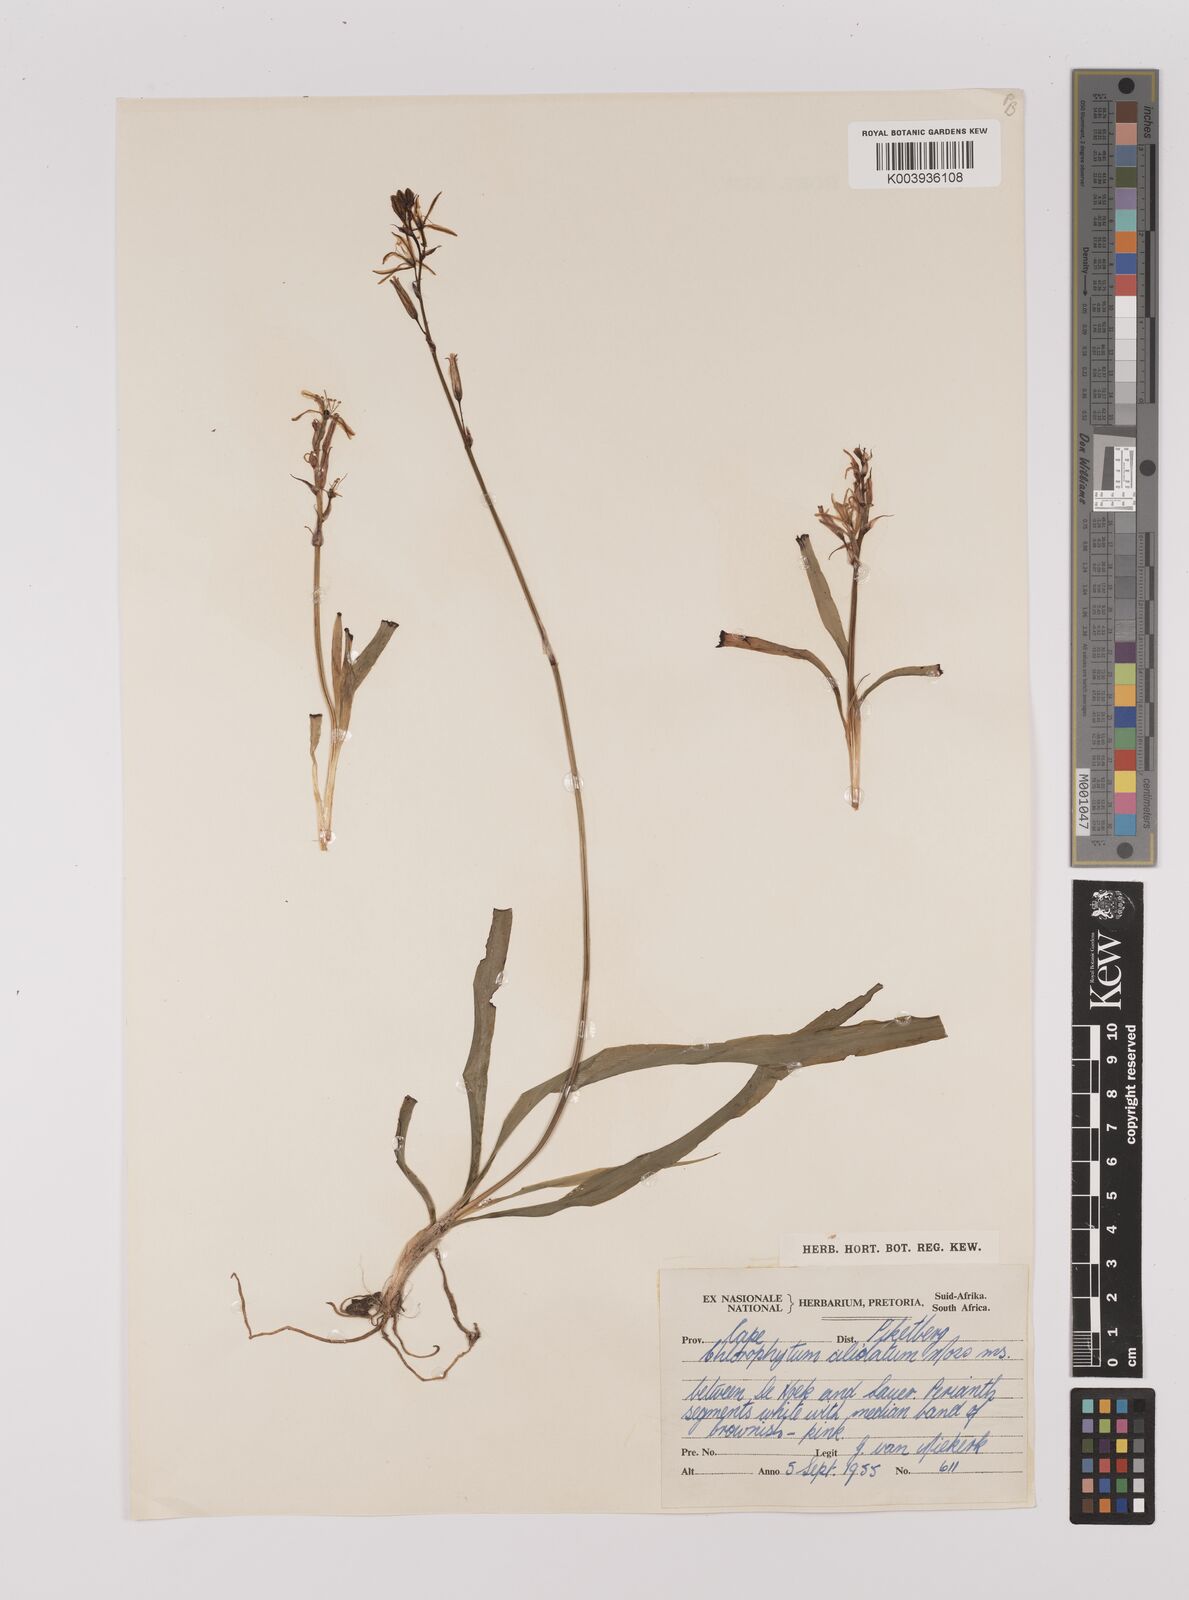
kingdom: Plantae
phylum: Tracheophyta
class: Liliopsida
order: Asparagales
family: Asparagaceae
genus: Chlorophytum
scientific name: Chlorophytum triflorum
